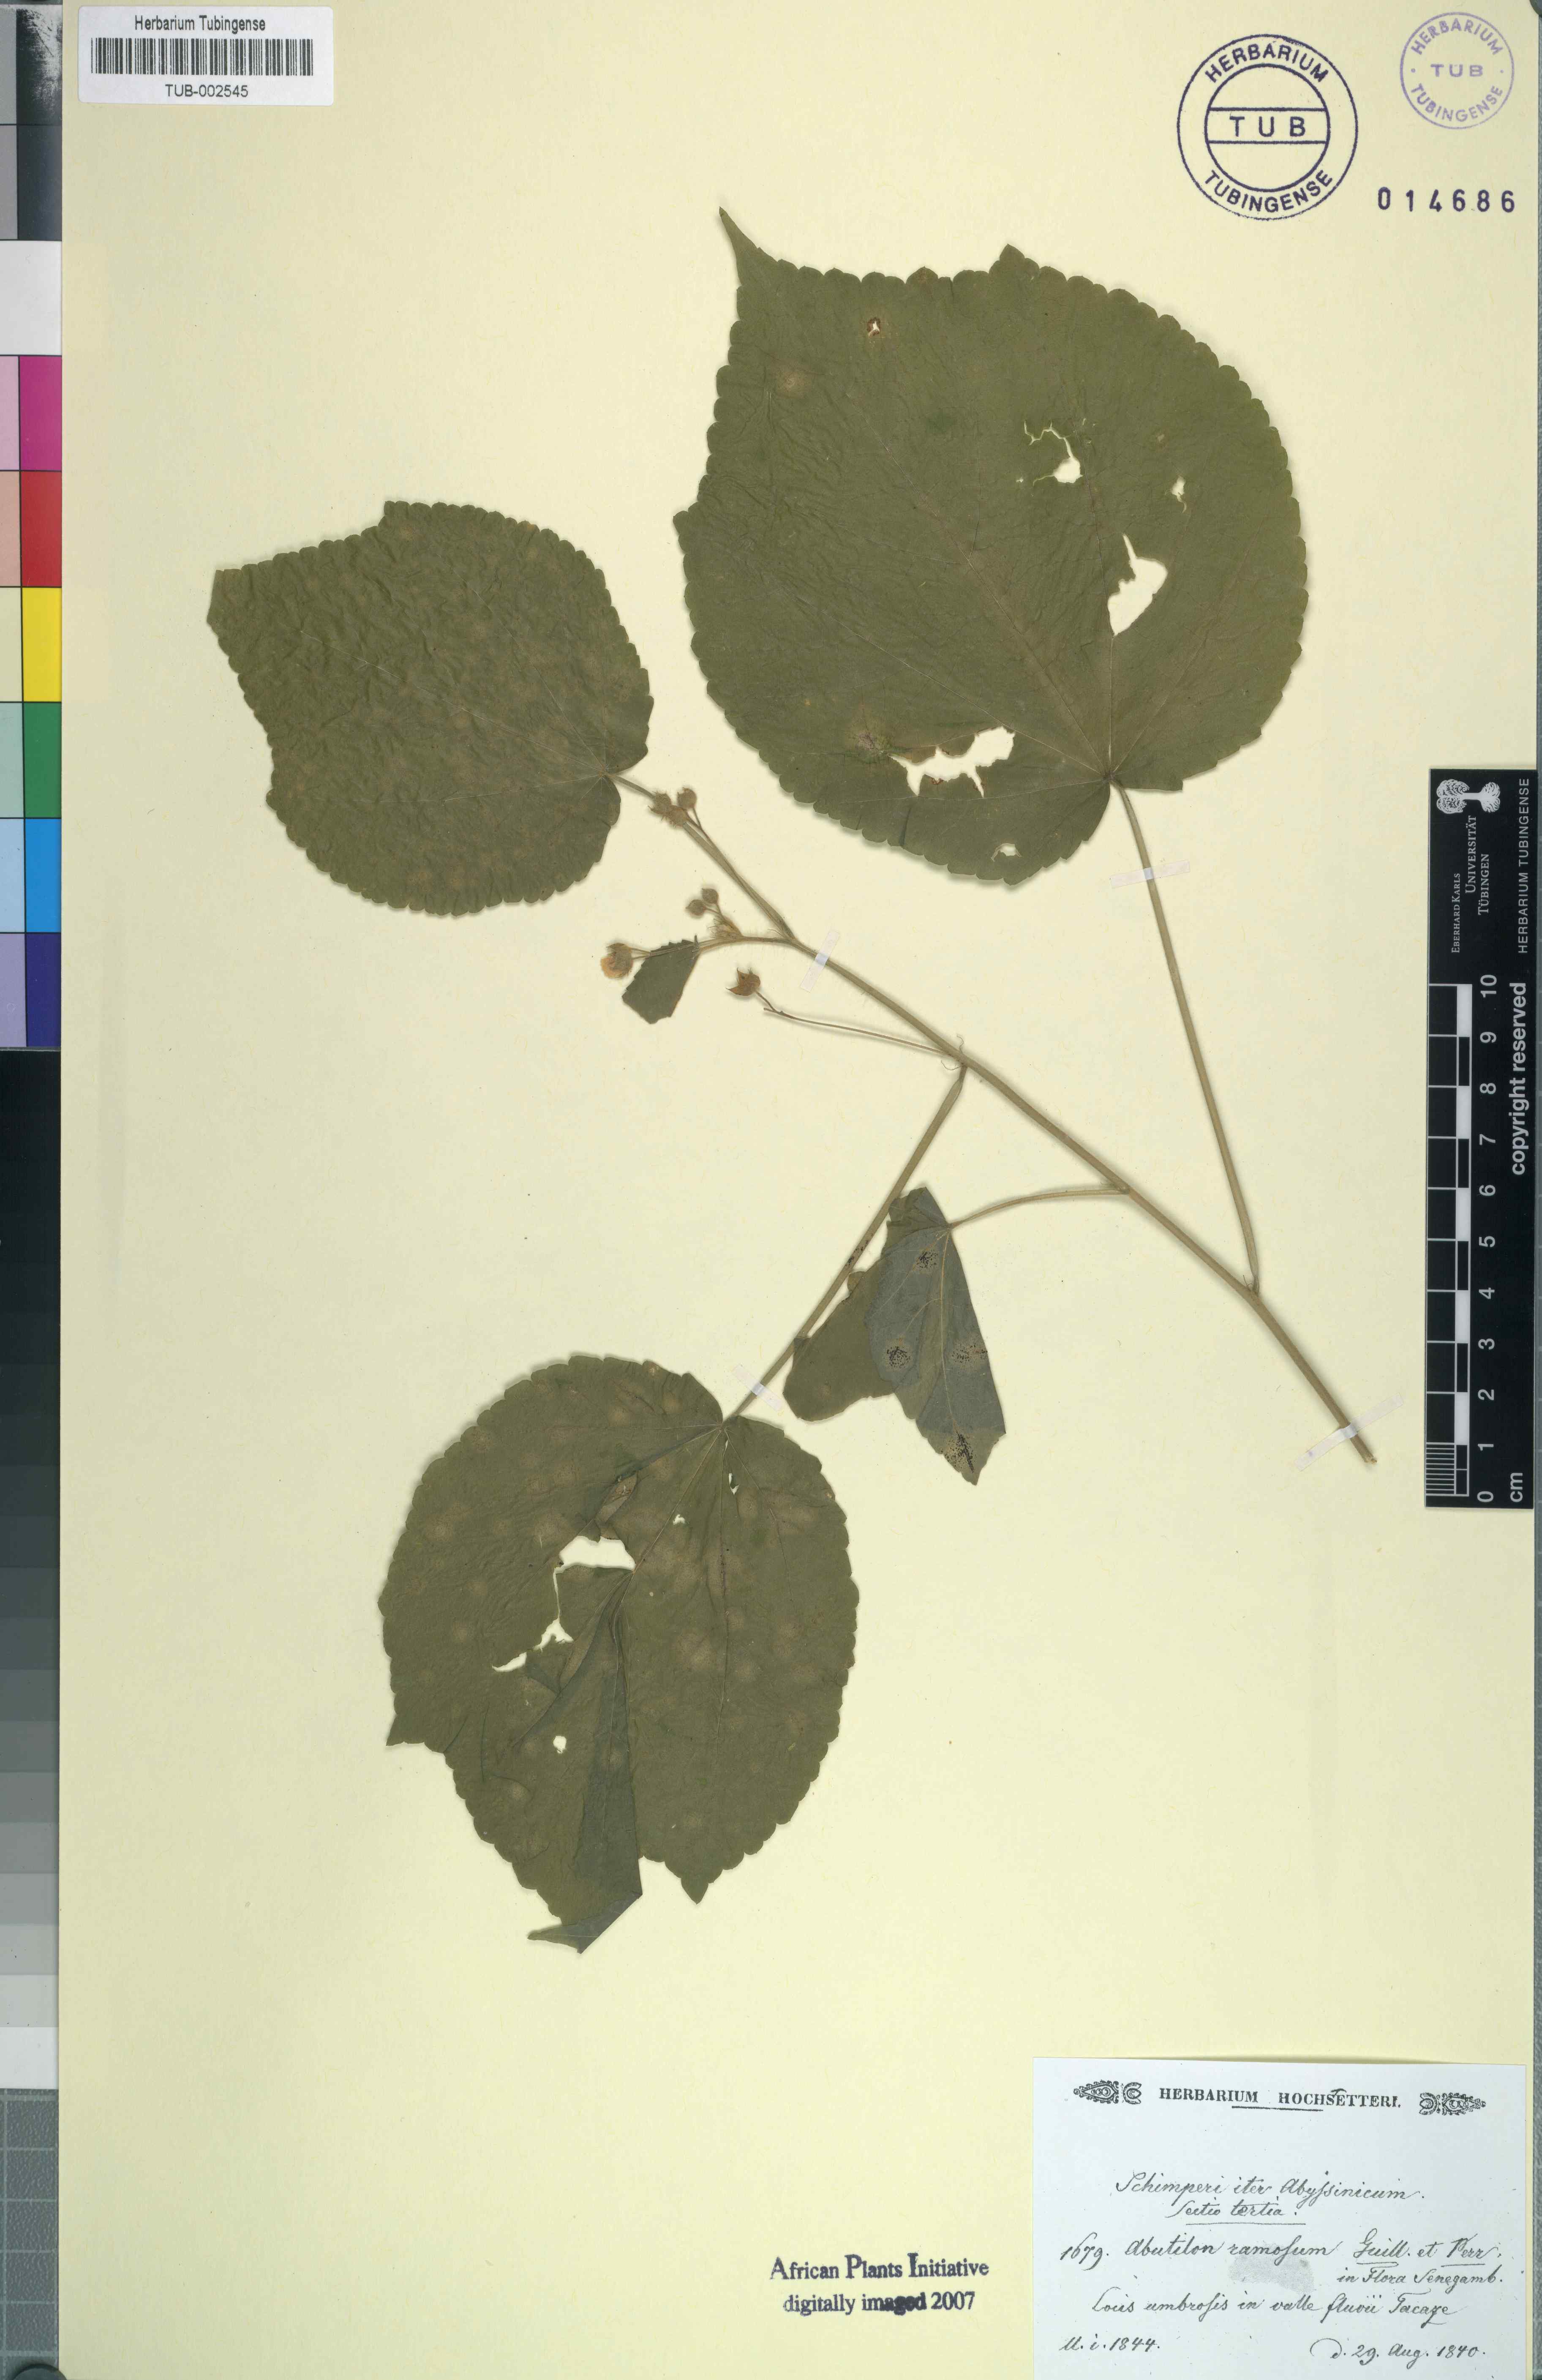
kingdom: Plantae
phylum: Tracheophyta
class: Magnoliopsida
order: Malvales
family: Malvaceae
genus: Abutilon
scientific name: Abutilon ramosum
